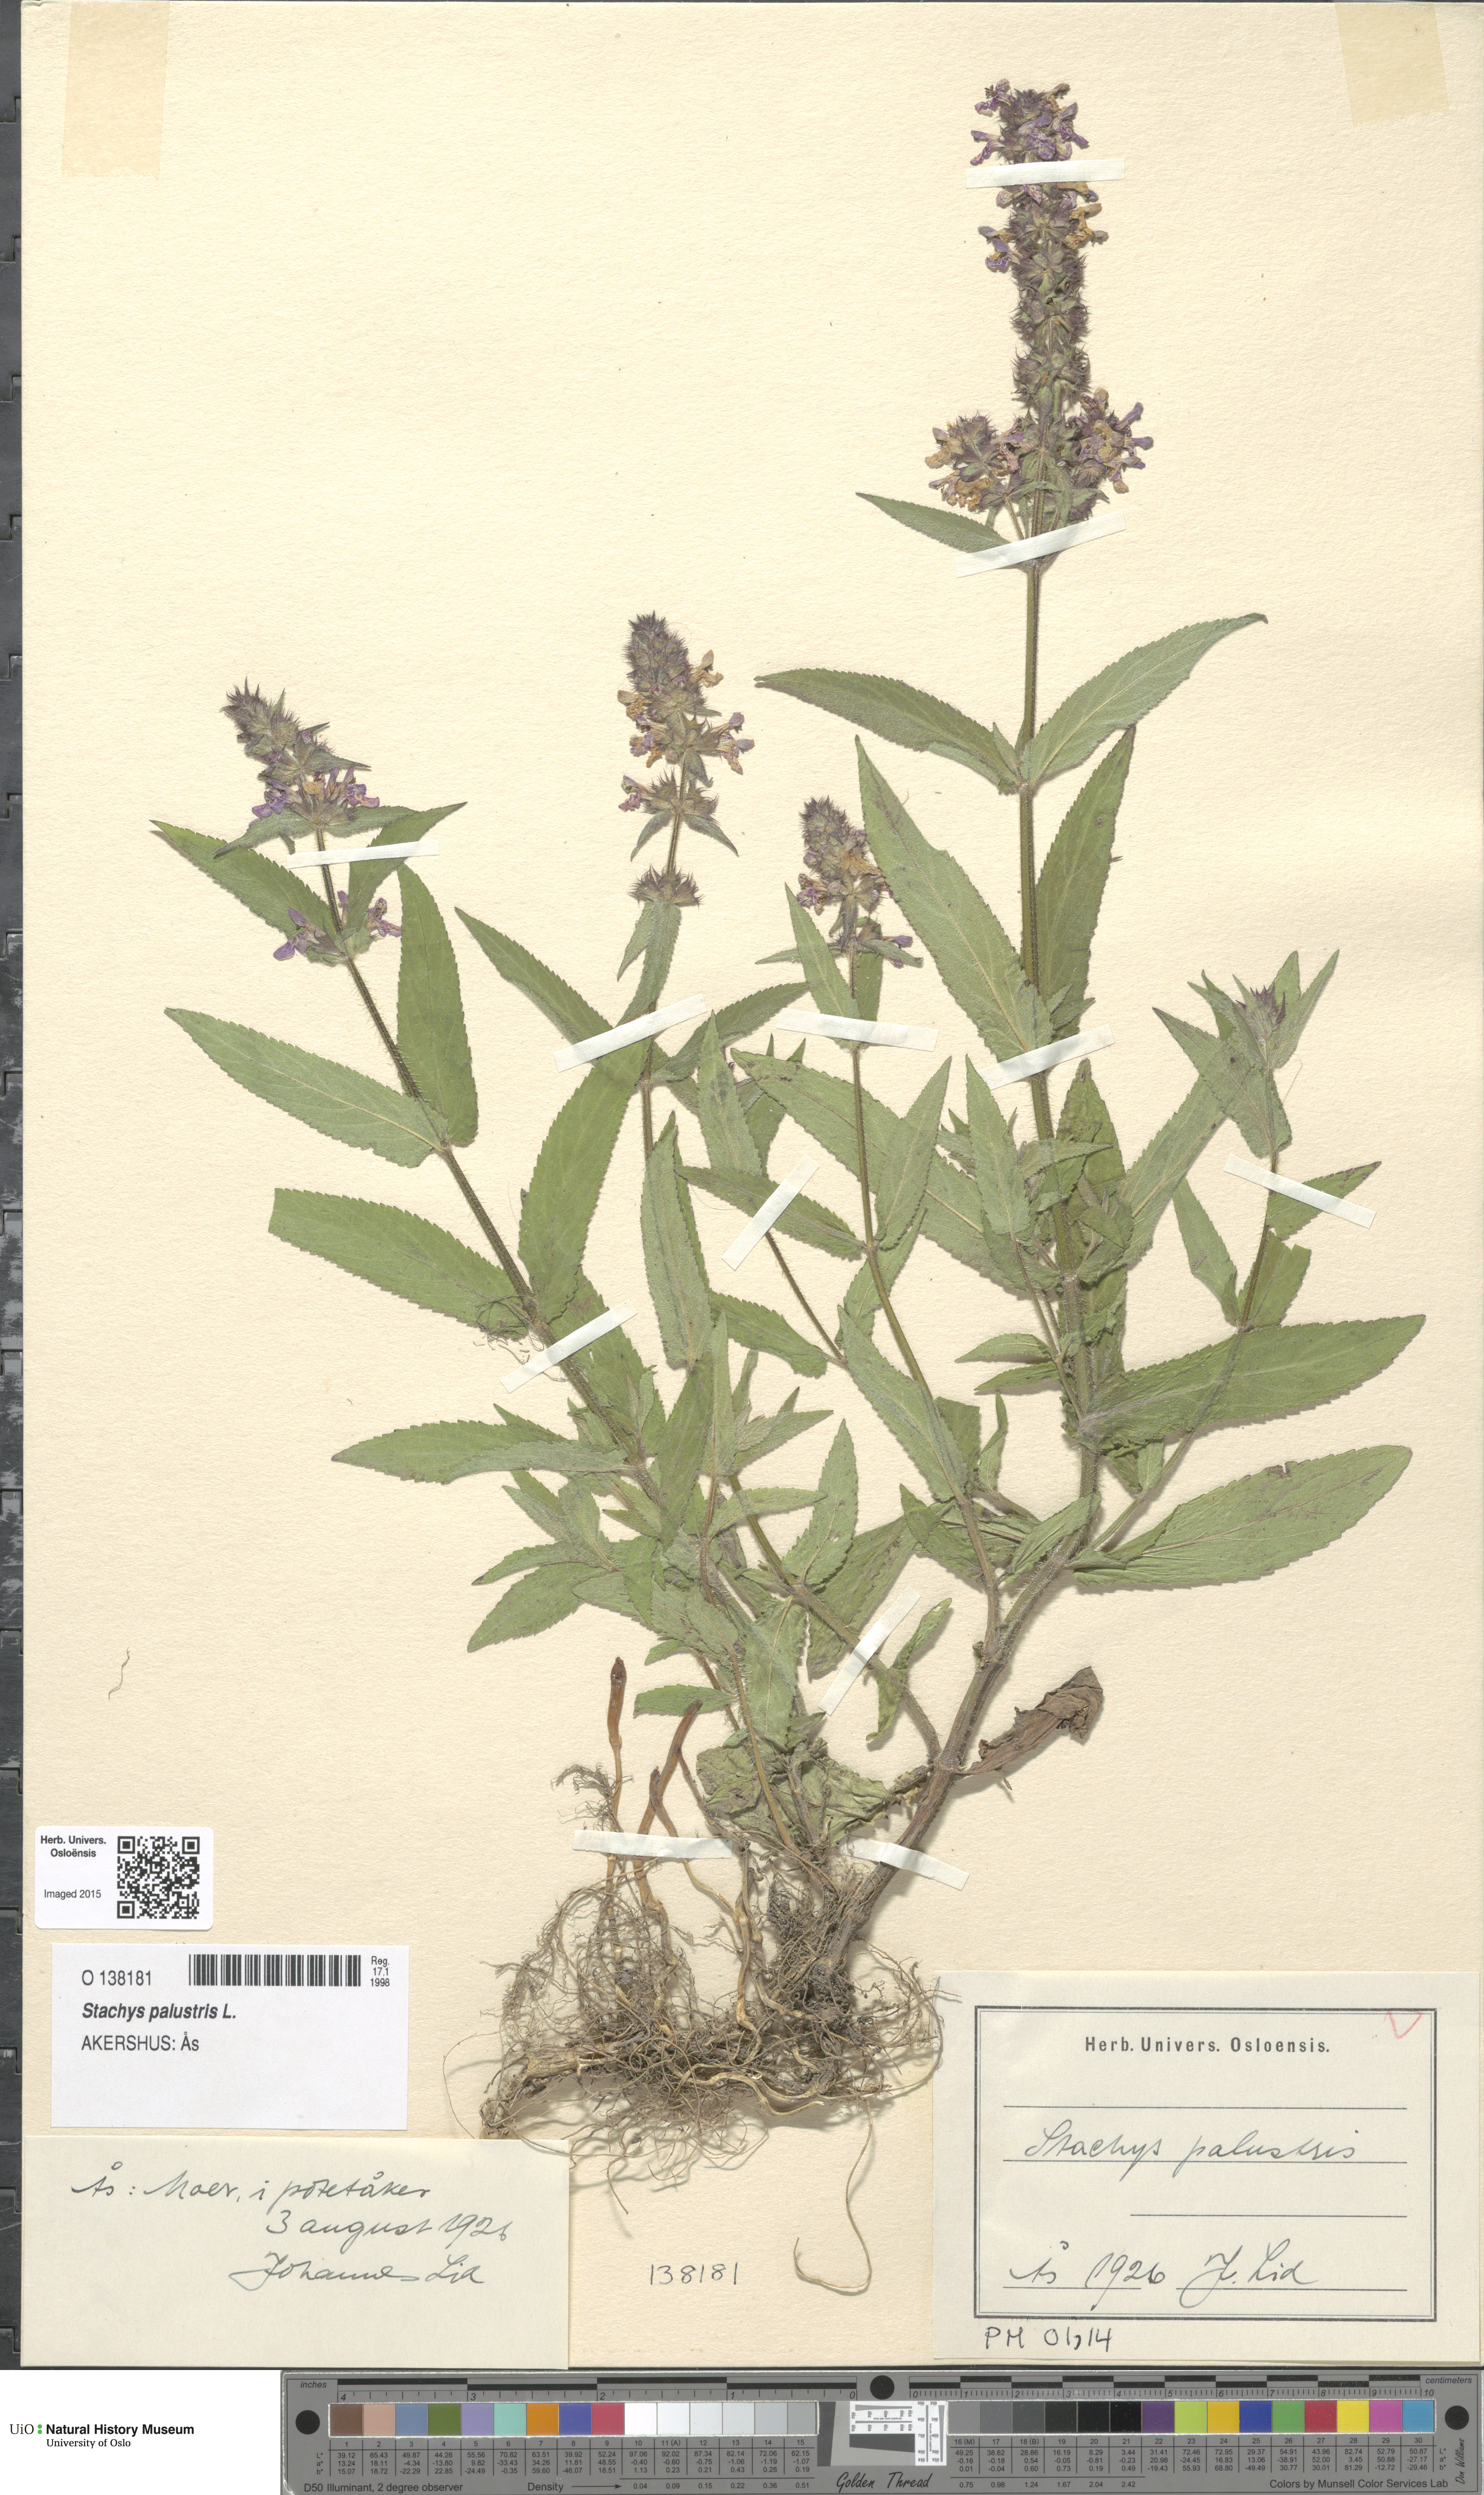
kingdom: Plantae
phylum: Tracheophyta
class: Magnoliopsida
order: Lamiales
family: Lamiaceae
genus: Stachys
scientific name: Stachys palustris
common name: Marsh woundwort
